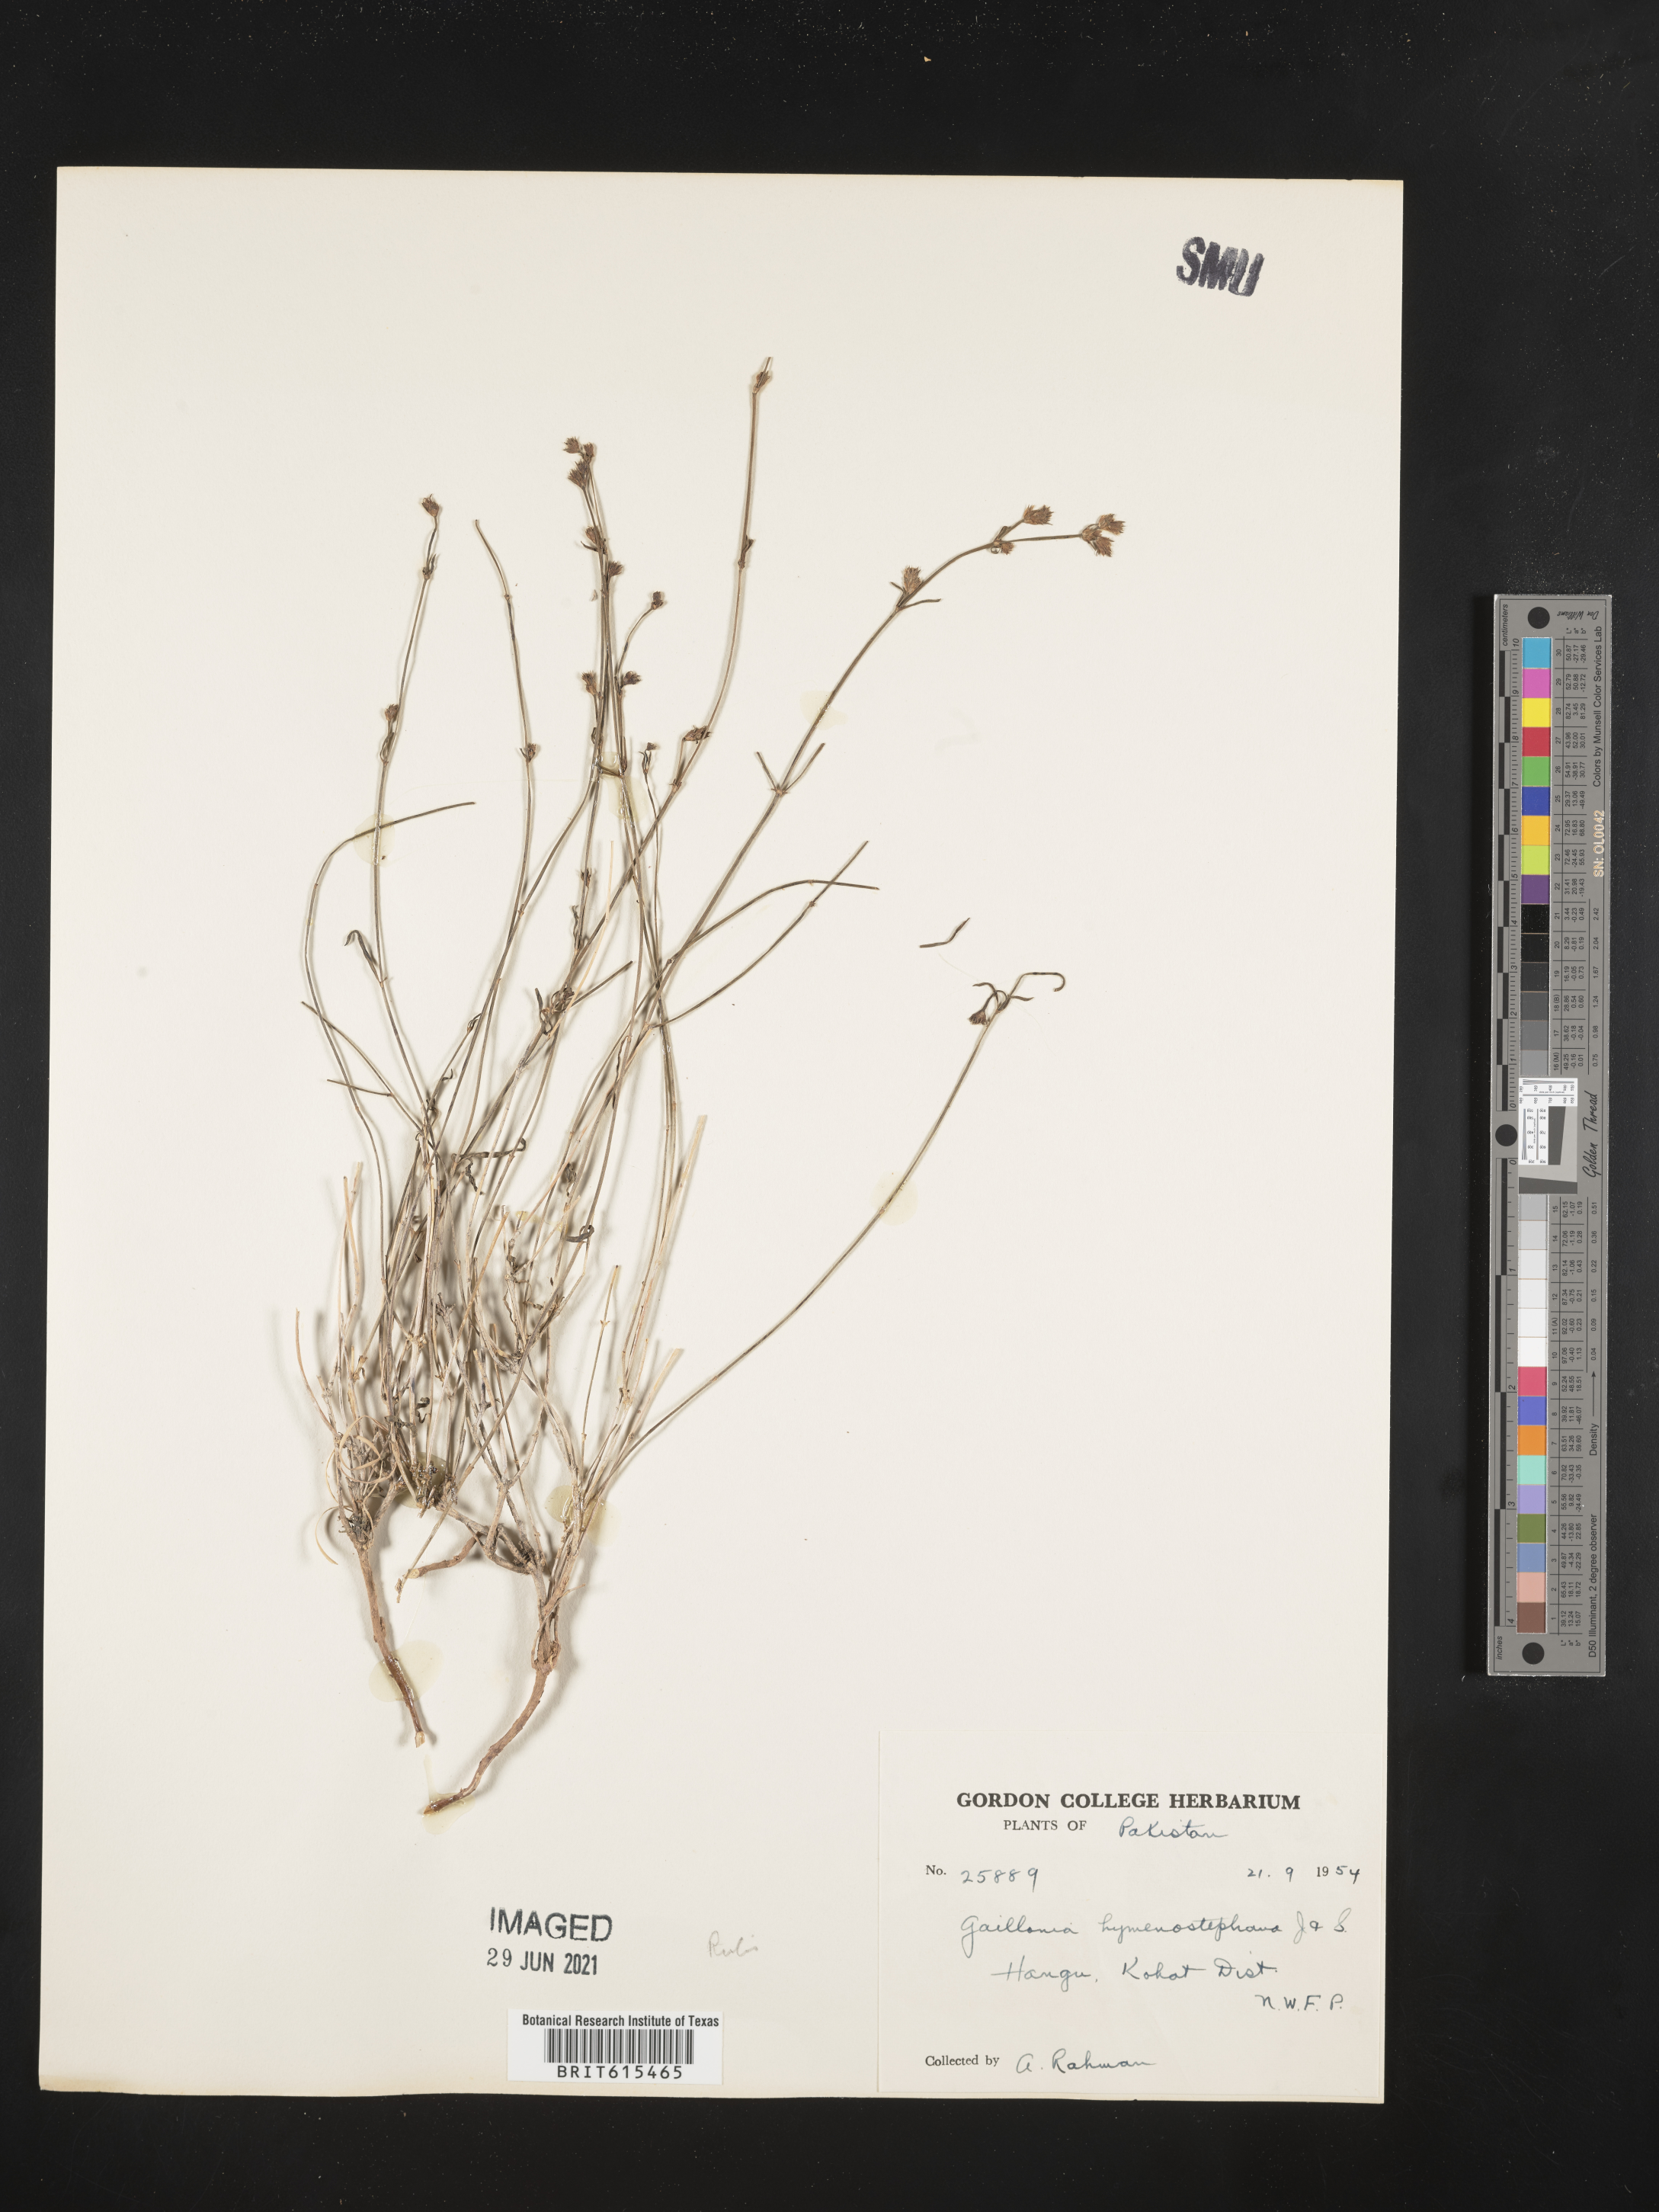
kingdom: Plantae
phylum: Tracheophyta
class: Magnoliopsida
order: Gentianales
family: Rubiaceae
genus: Plocama
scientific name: Plocama hymenostephana
